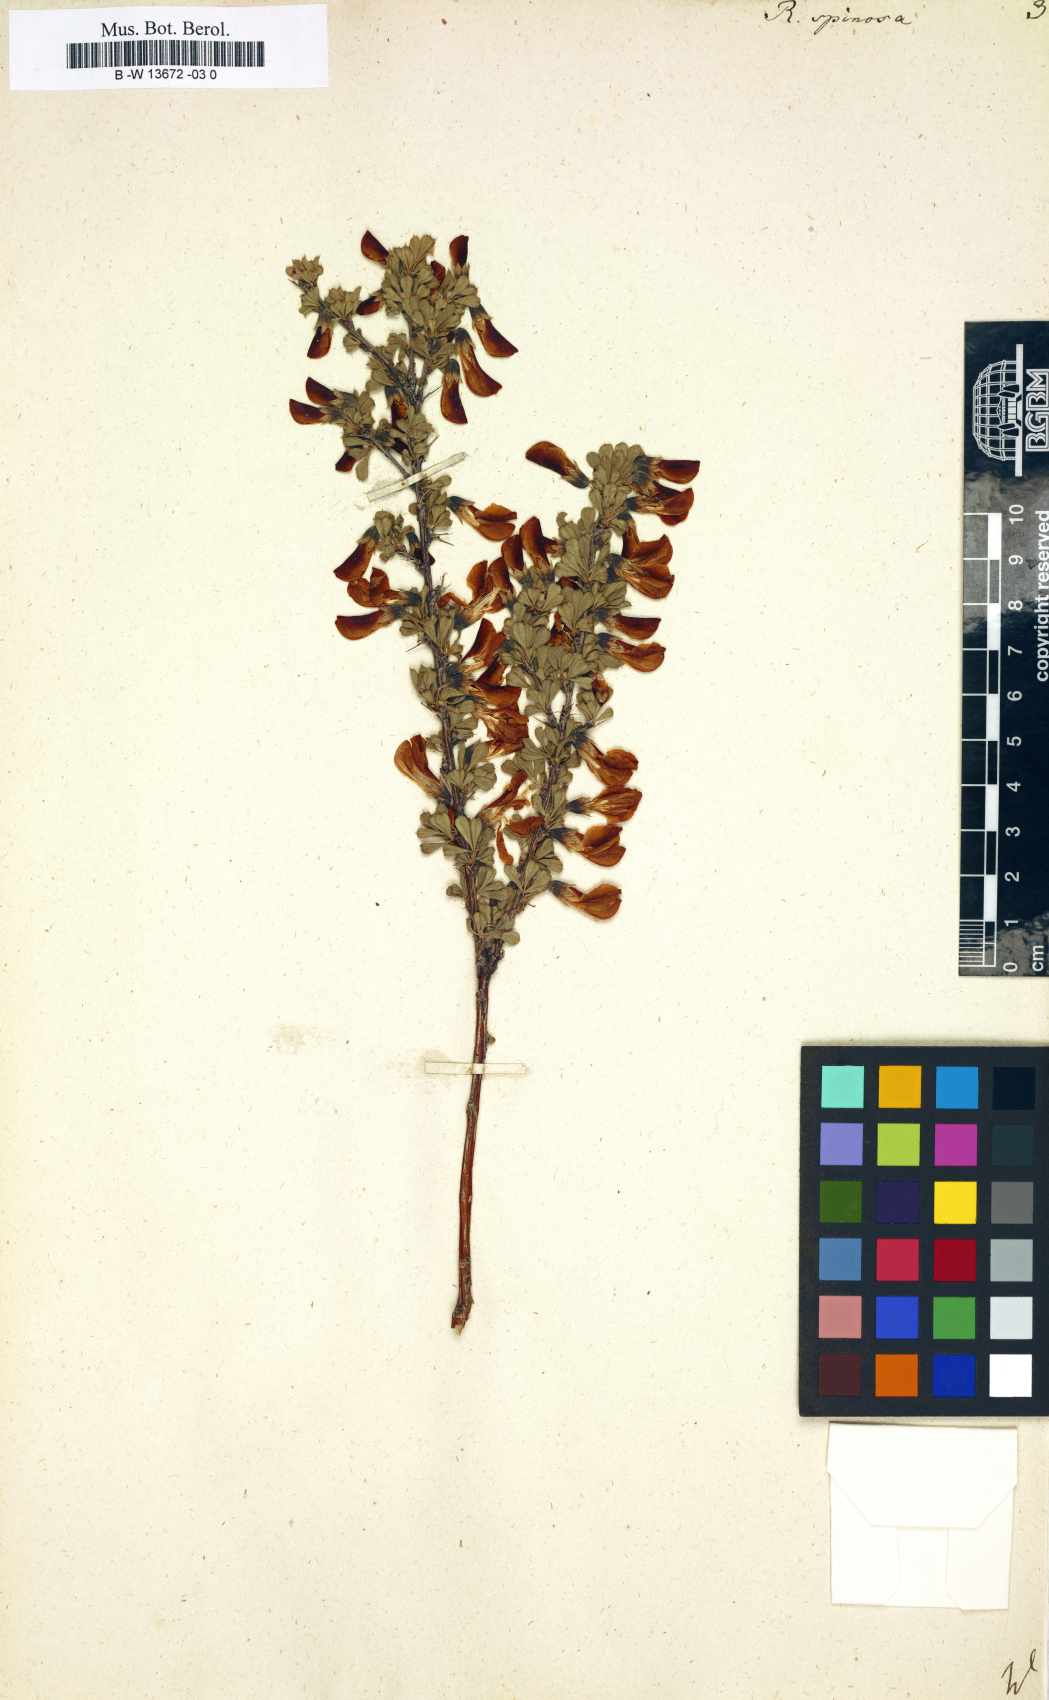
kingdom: Plantae
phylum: Tracheophyta
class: Magnoliopsida
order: Fabales
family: Fabaceae
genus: Caragana
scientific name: Caragana spinosa
